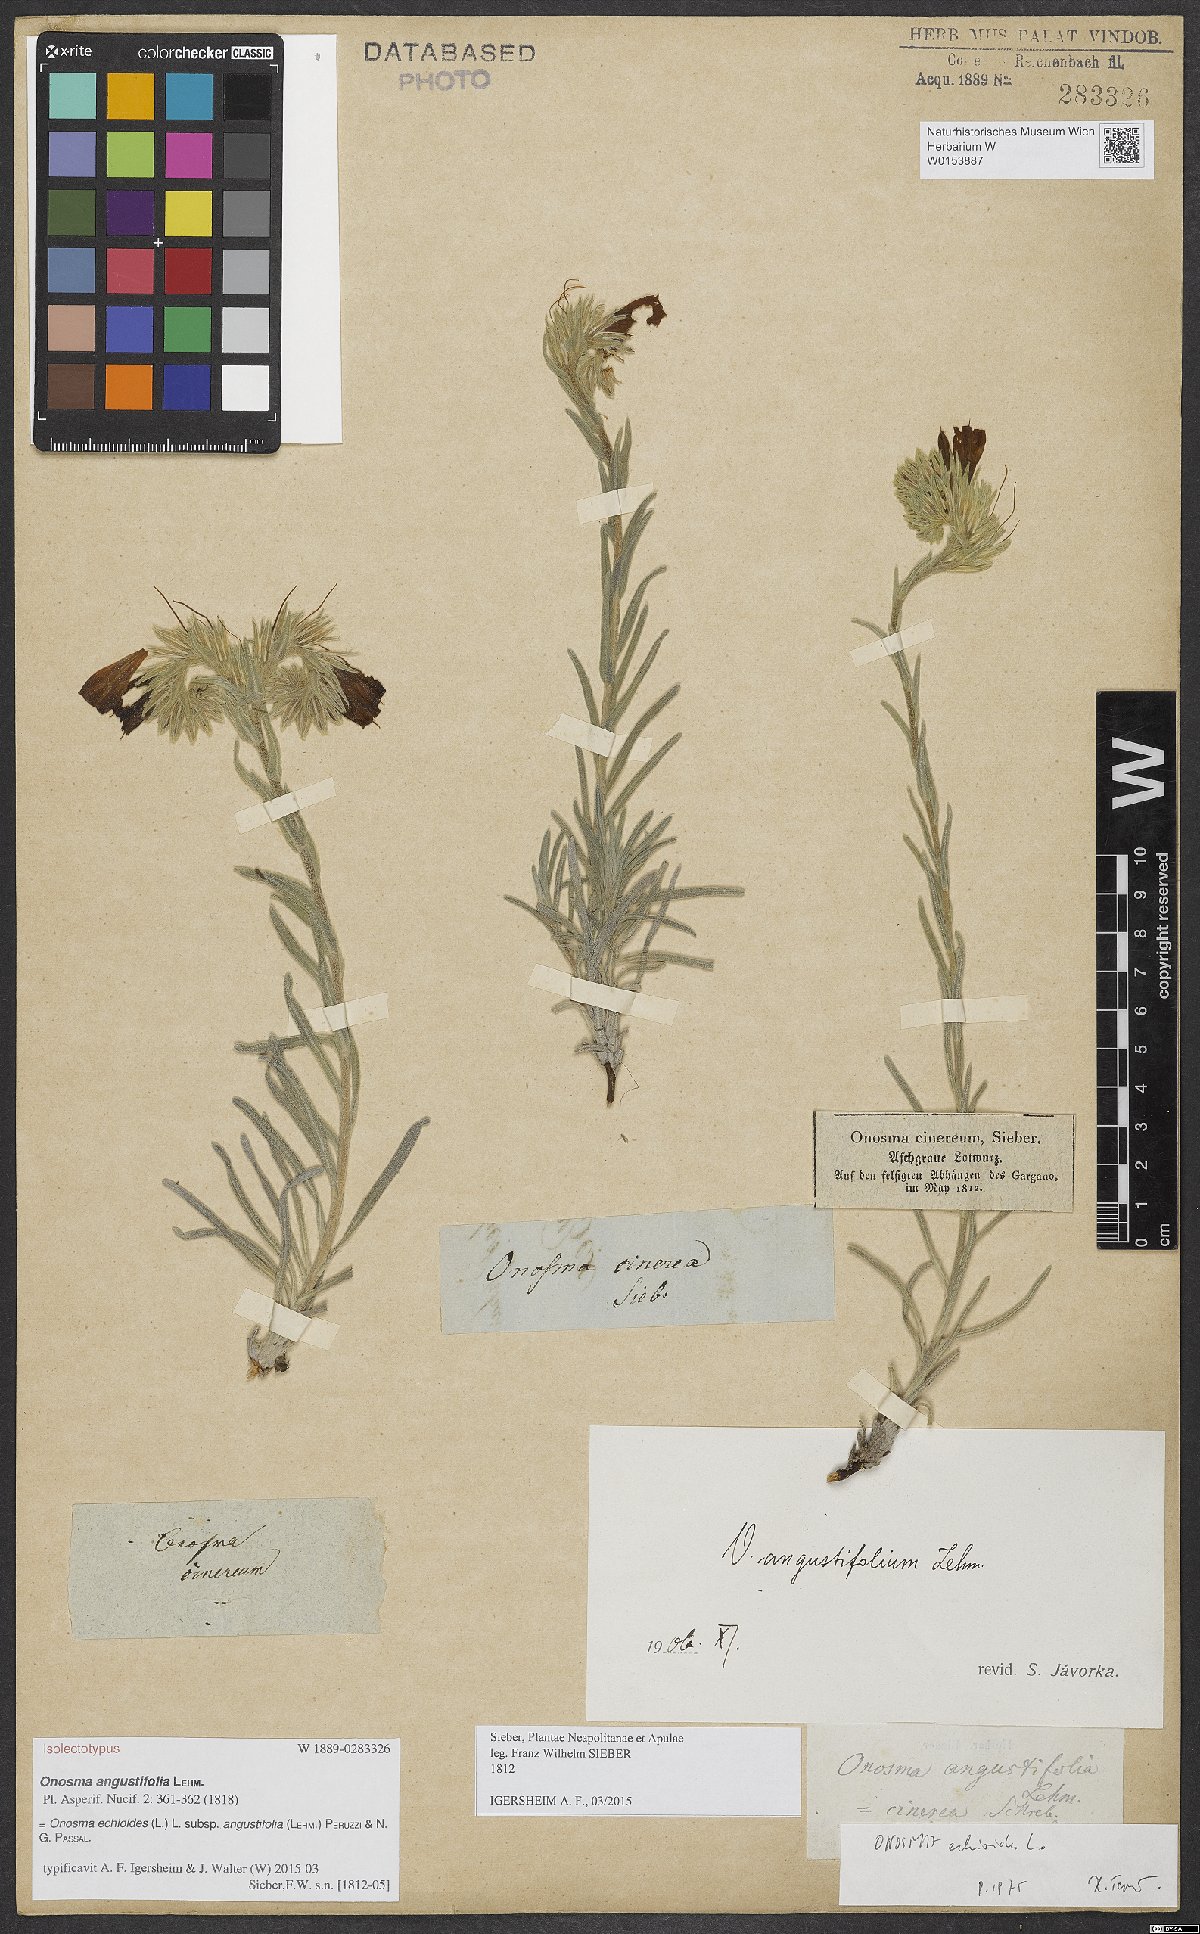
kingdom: Plantae
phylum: Tracheophyta
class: Magnoliopsida
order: Boraginales
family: Boraginaceae
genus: Onosma
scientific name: Onosma echioides
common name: Goldendrop
